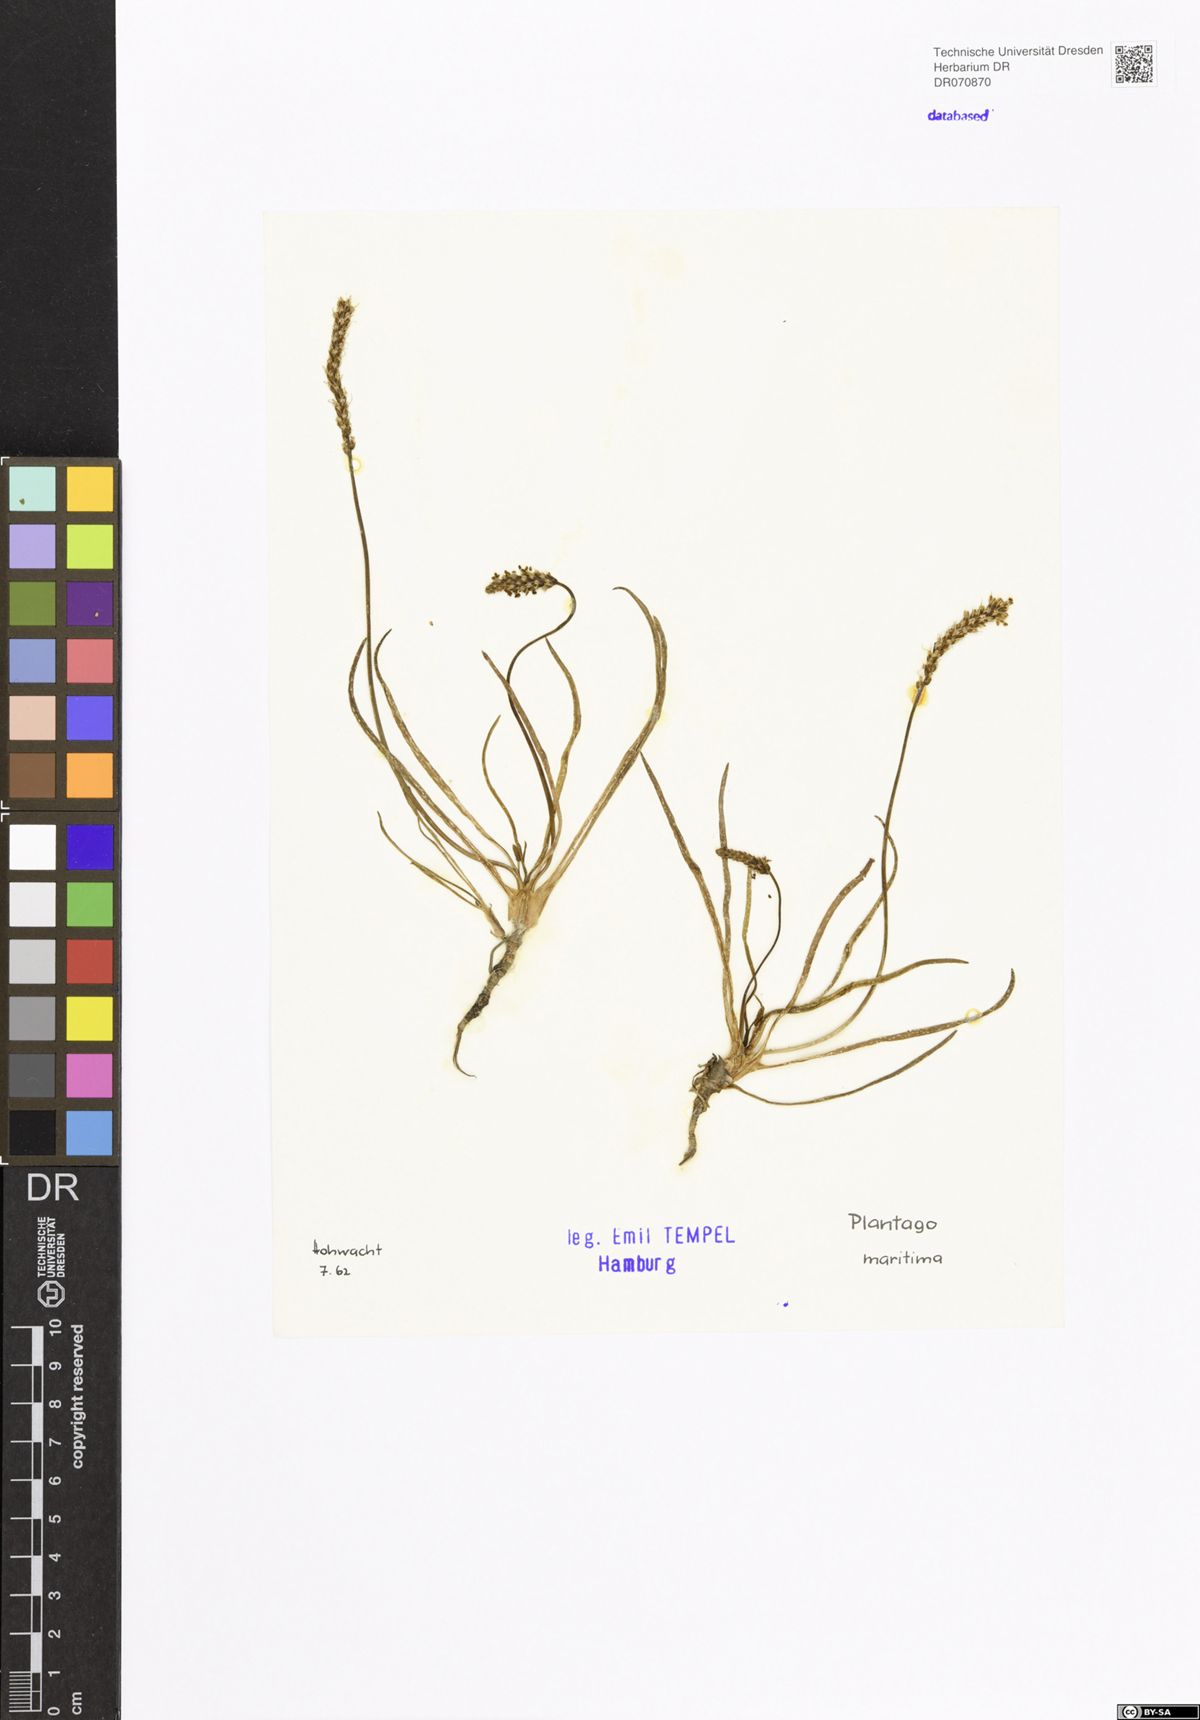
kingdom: Plantae
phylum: Tracheophyta
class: Magnoliopsida
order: Lamiales
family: Plantaginaceae
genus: Plantago
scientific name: Plantago maritima
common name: Sea plantain
